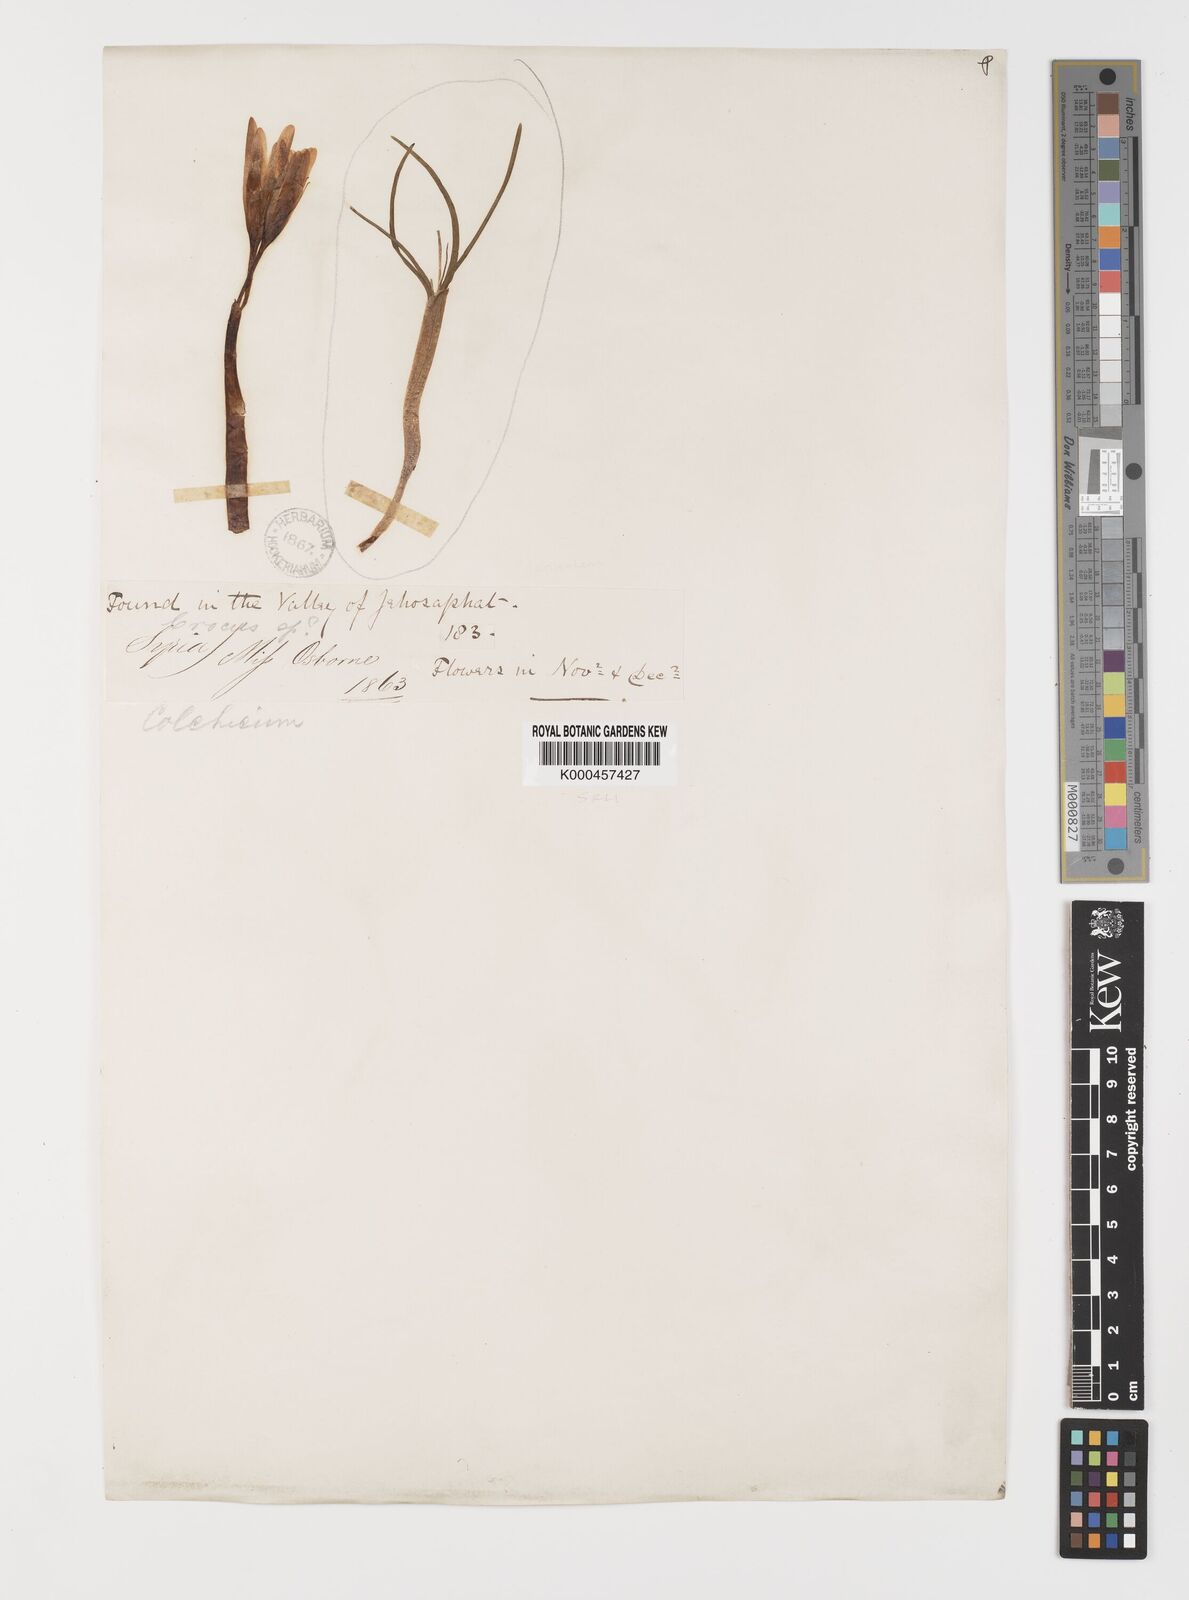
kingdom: Plantae
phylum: Tracheophyta
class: Liliopsida
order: Liliales
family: Colchicaceae
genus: Colchicum
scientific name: Colchicum balansae
